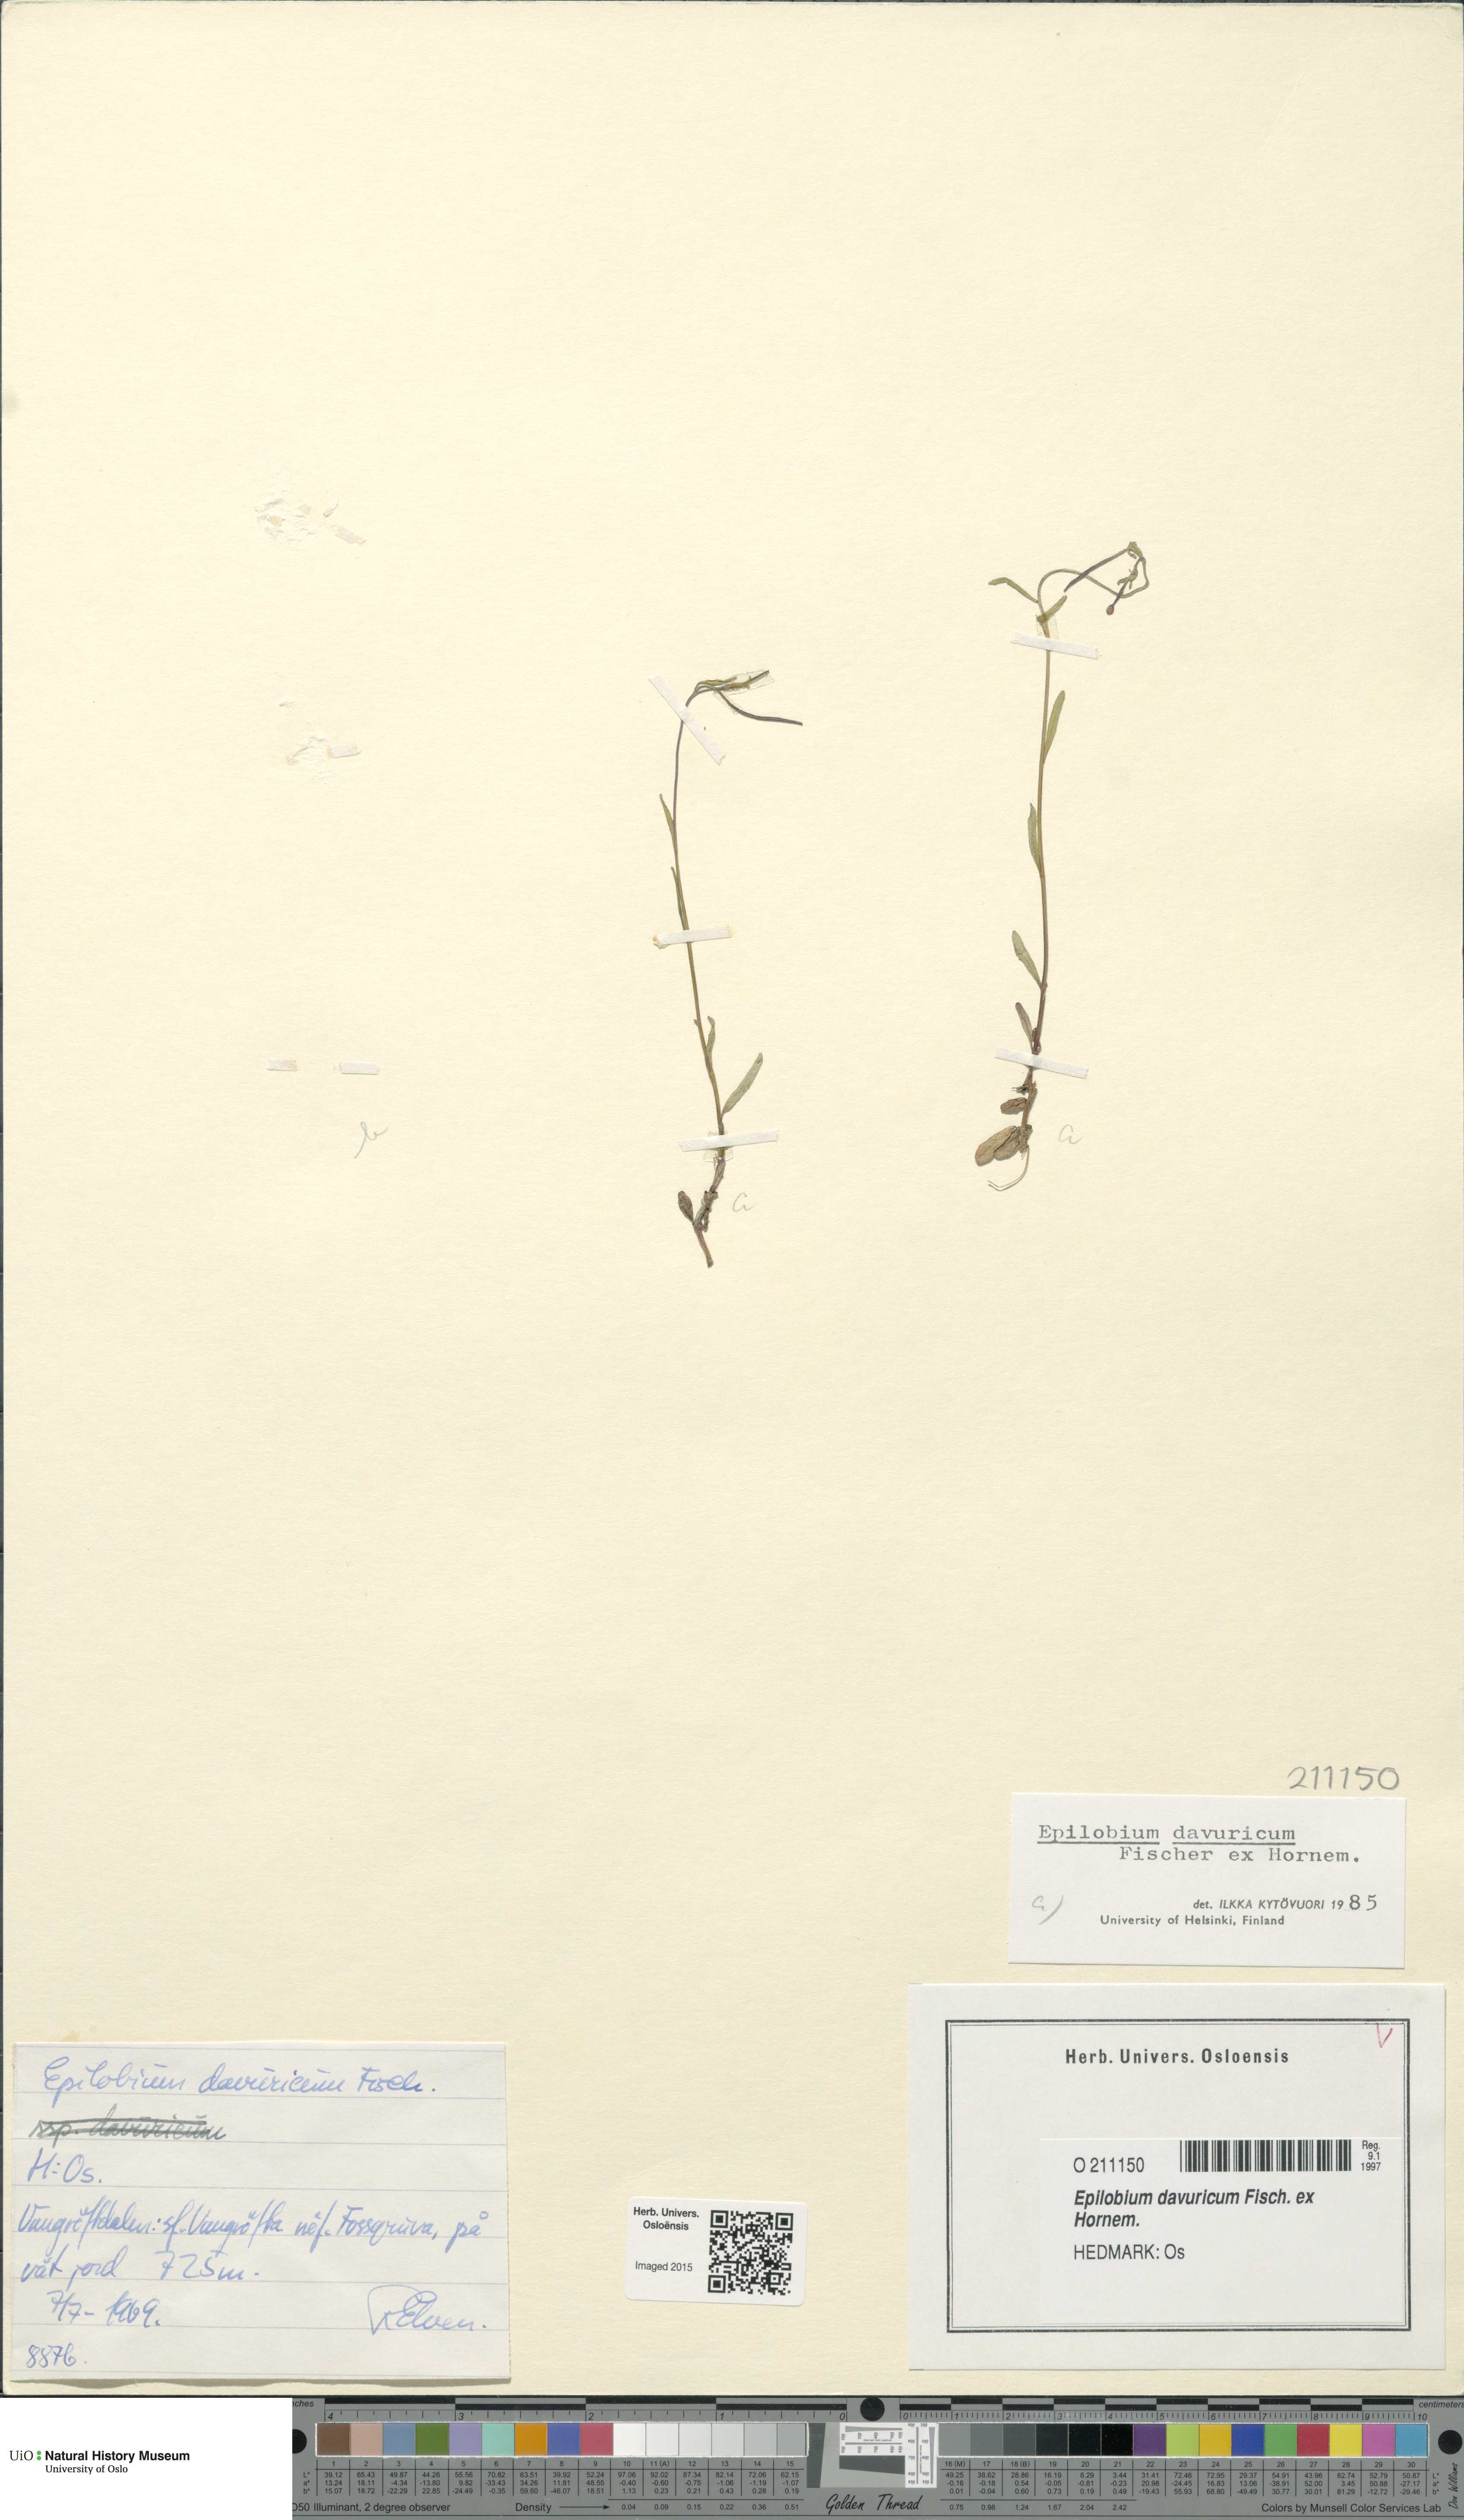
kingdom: Plantae
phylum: Tracheophyta
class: Magnoliopsida
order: Myrtales
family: Onagraceae
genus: Epilobium
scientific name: Epilobium davuricum
